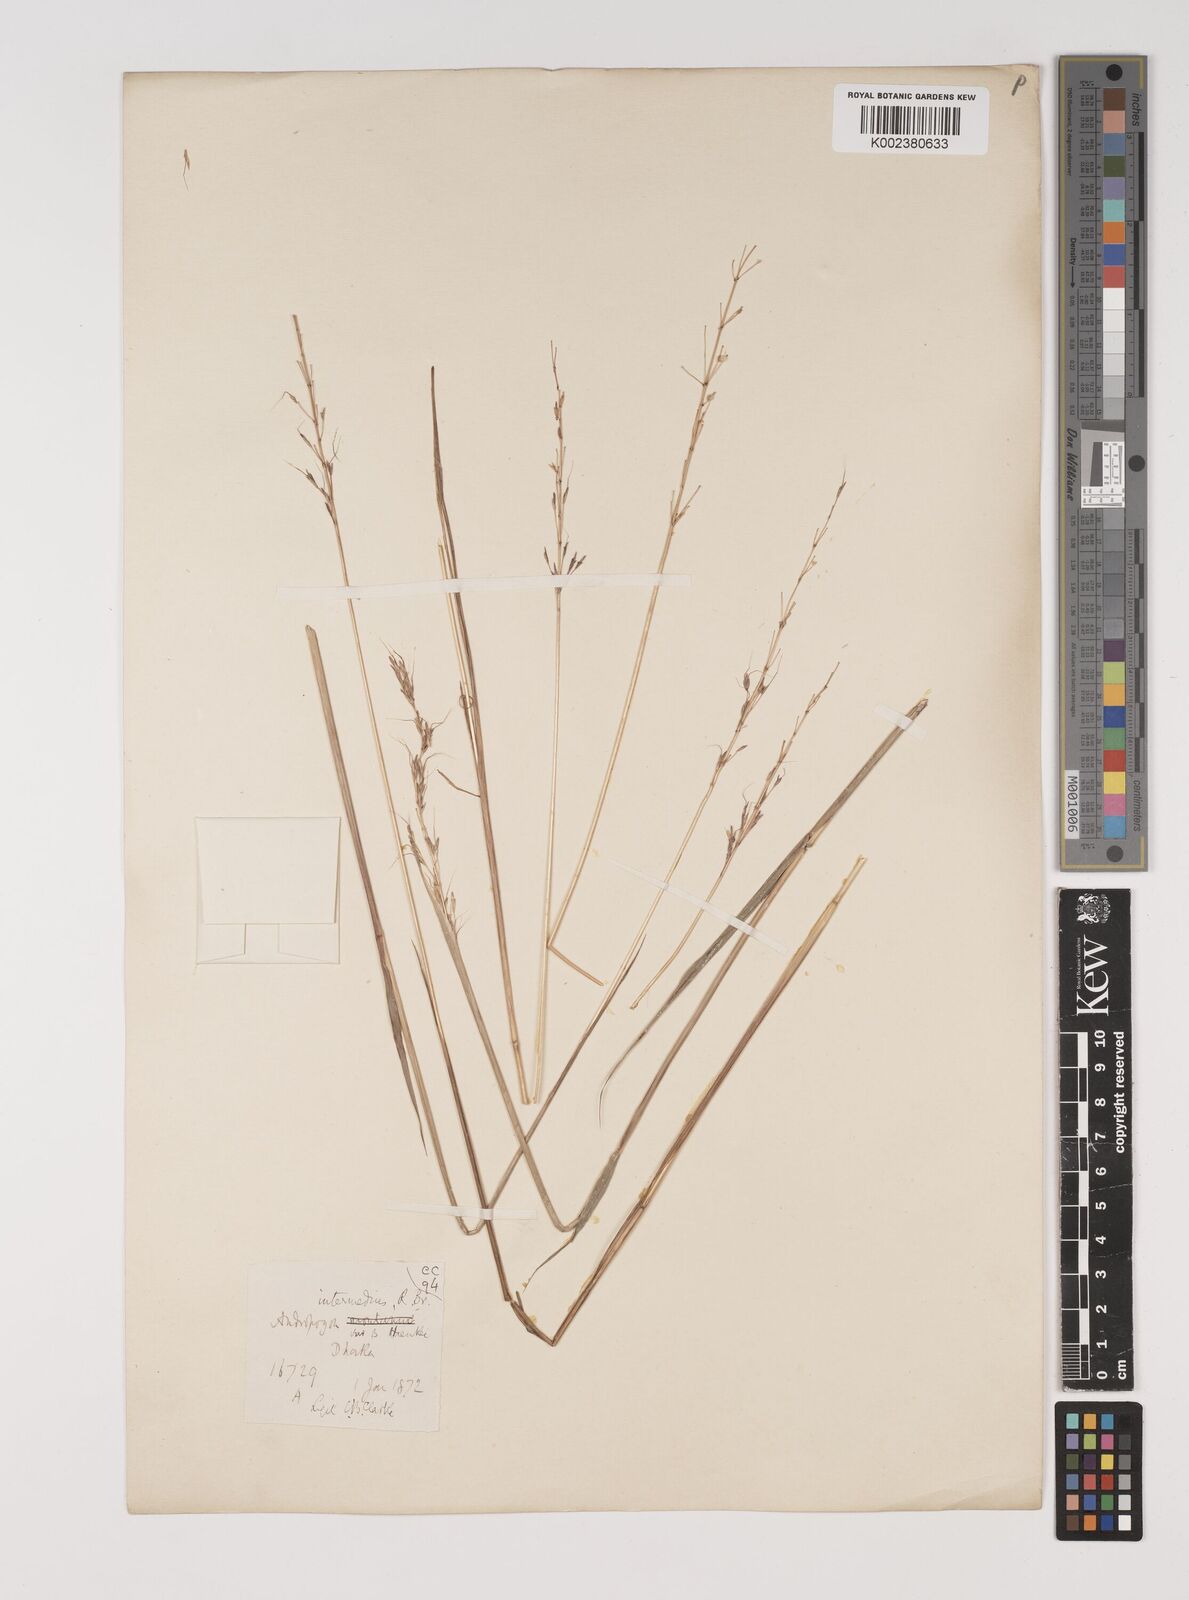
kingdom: Plantae
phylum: Tracheophyta
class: Liliopsida
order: Poales
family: Poaceae
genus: Bothriochloa
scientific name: Bothriochloa bladhii
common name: Caucasian bluestem
